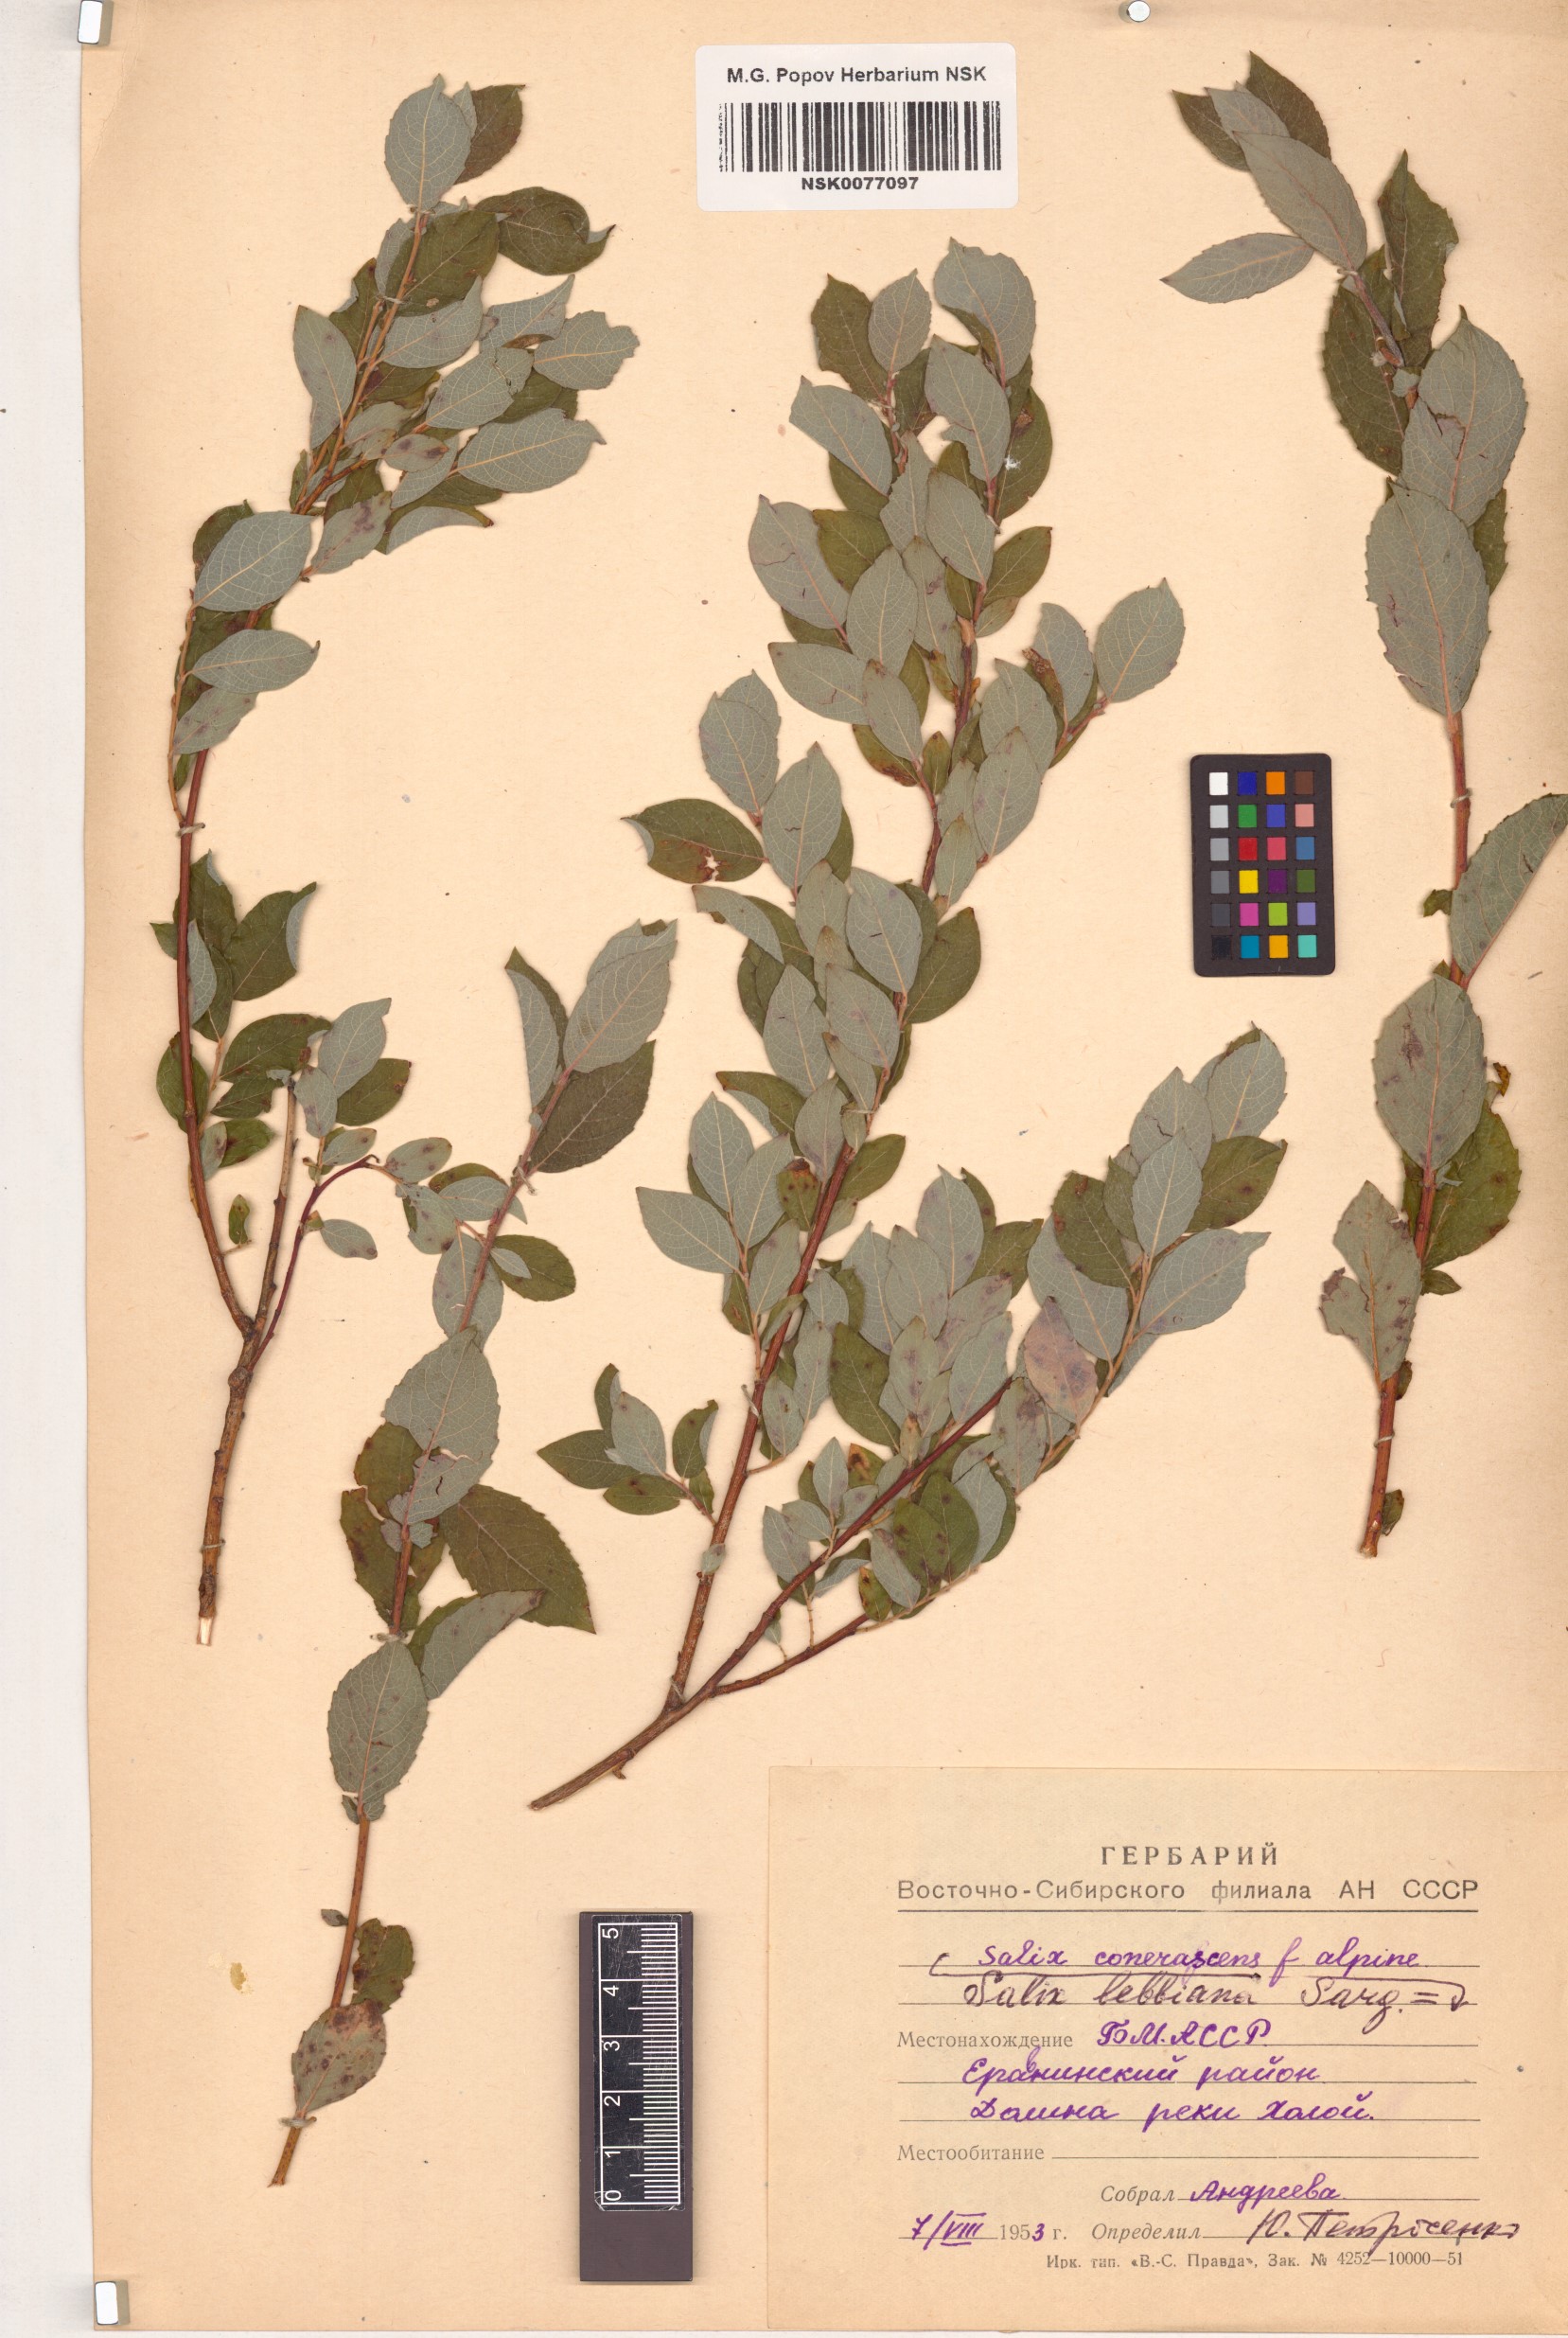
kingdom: Plantae
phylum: Tracheophyta
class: Magnoliopsida
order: Malpighiales
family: Salicaceae
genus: Salix
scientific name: Salix bebbiana
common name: Bebb's willow
